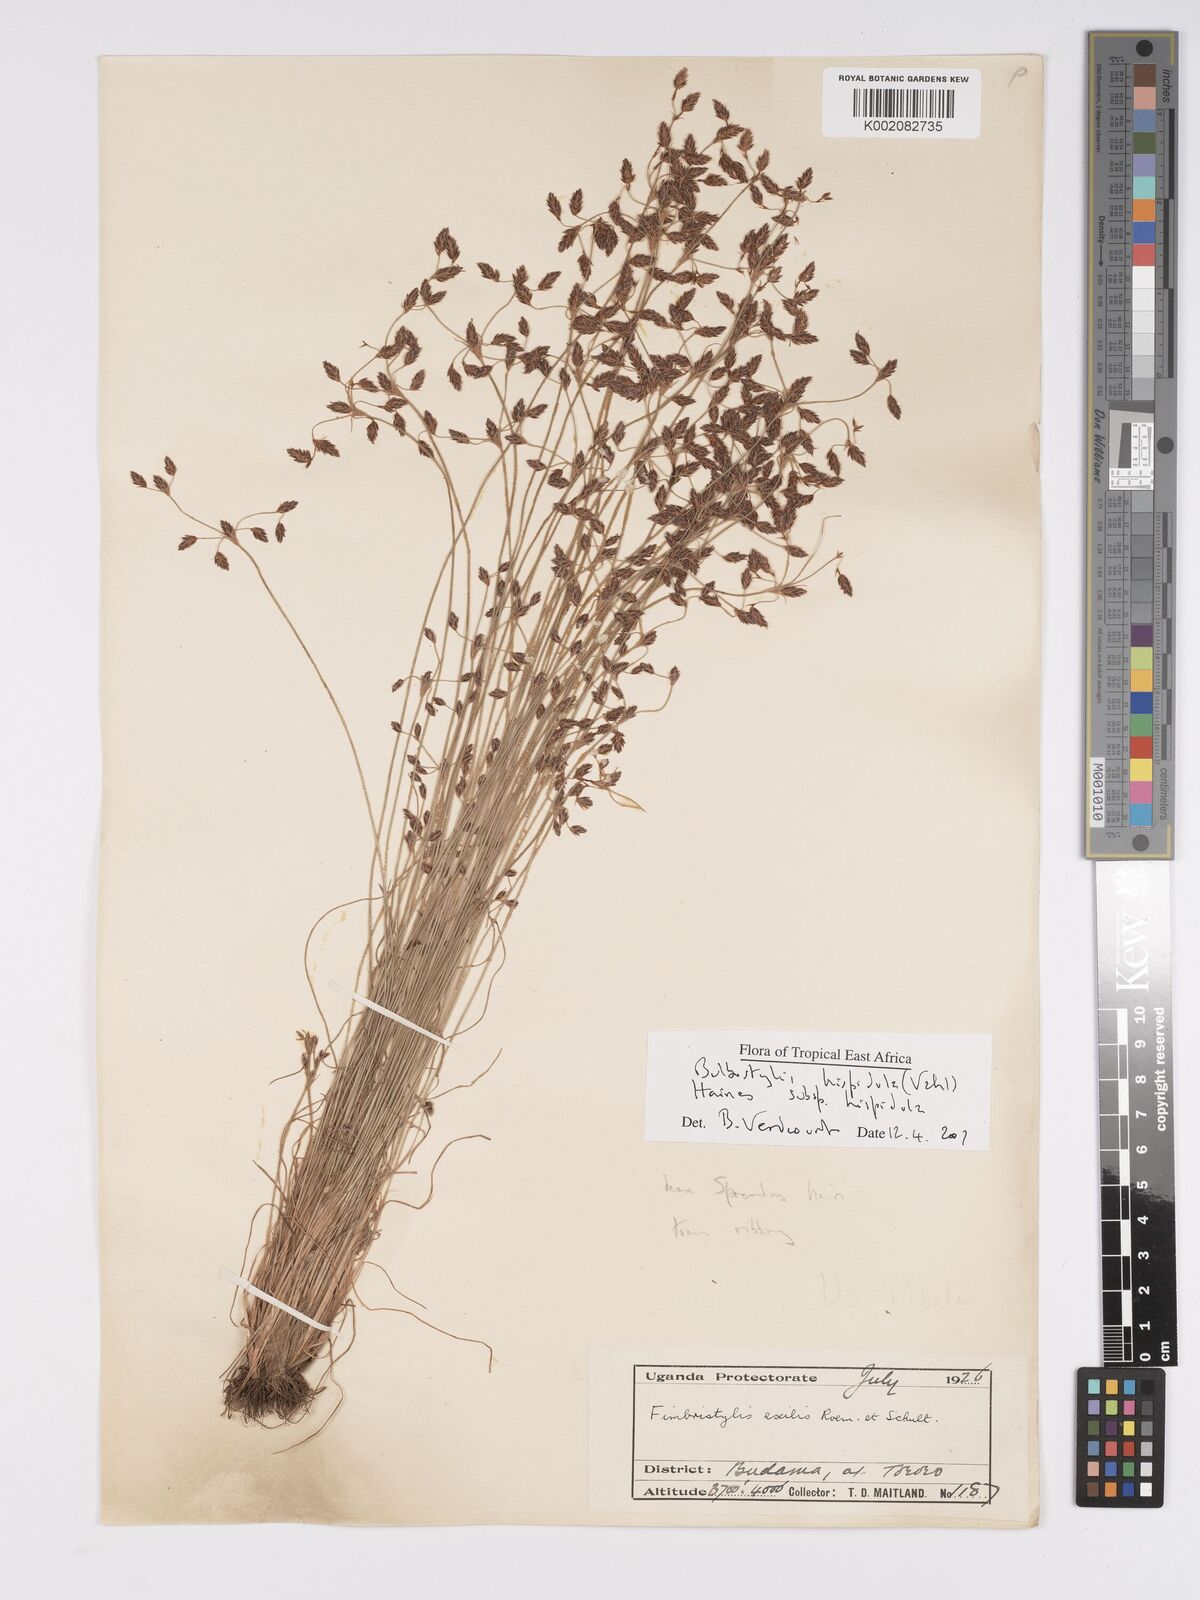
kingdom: Plantae
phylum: Tracheophyta
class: Magnoliopsida
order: Asterales
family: Asteraceae
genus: Bulbostylis
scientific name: Bulbostylis
